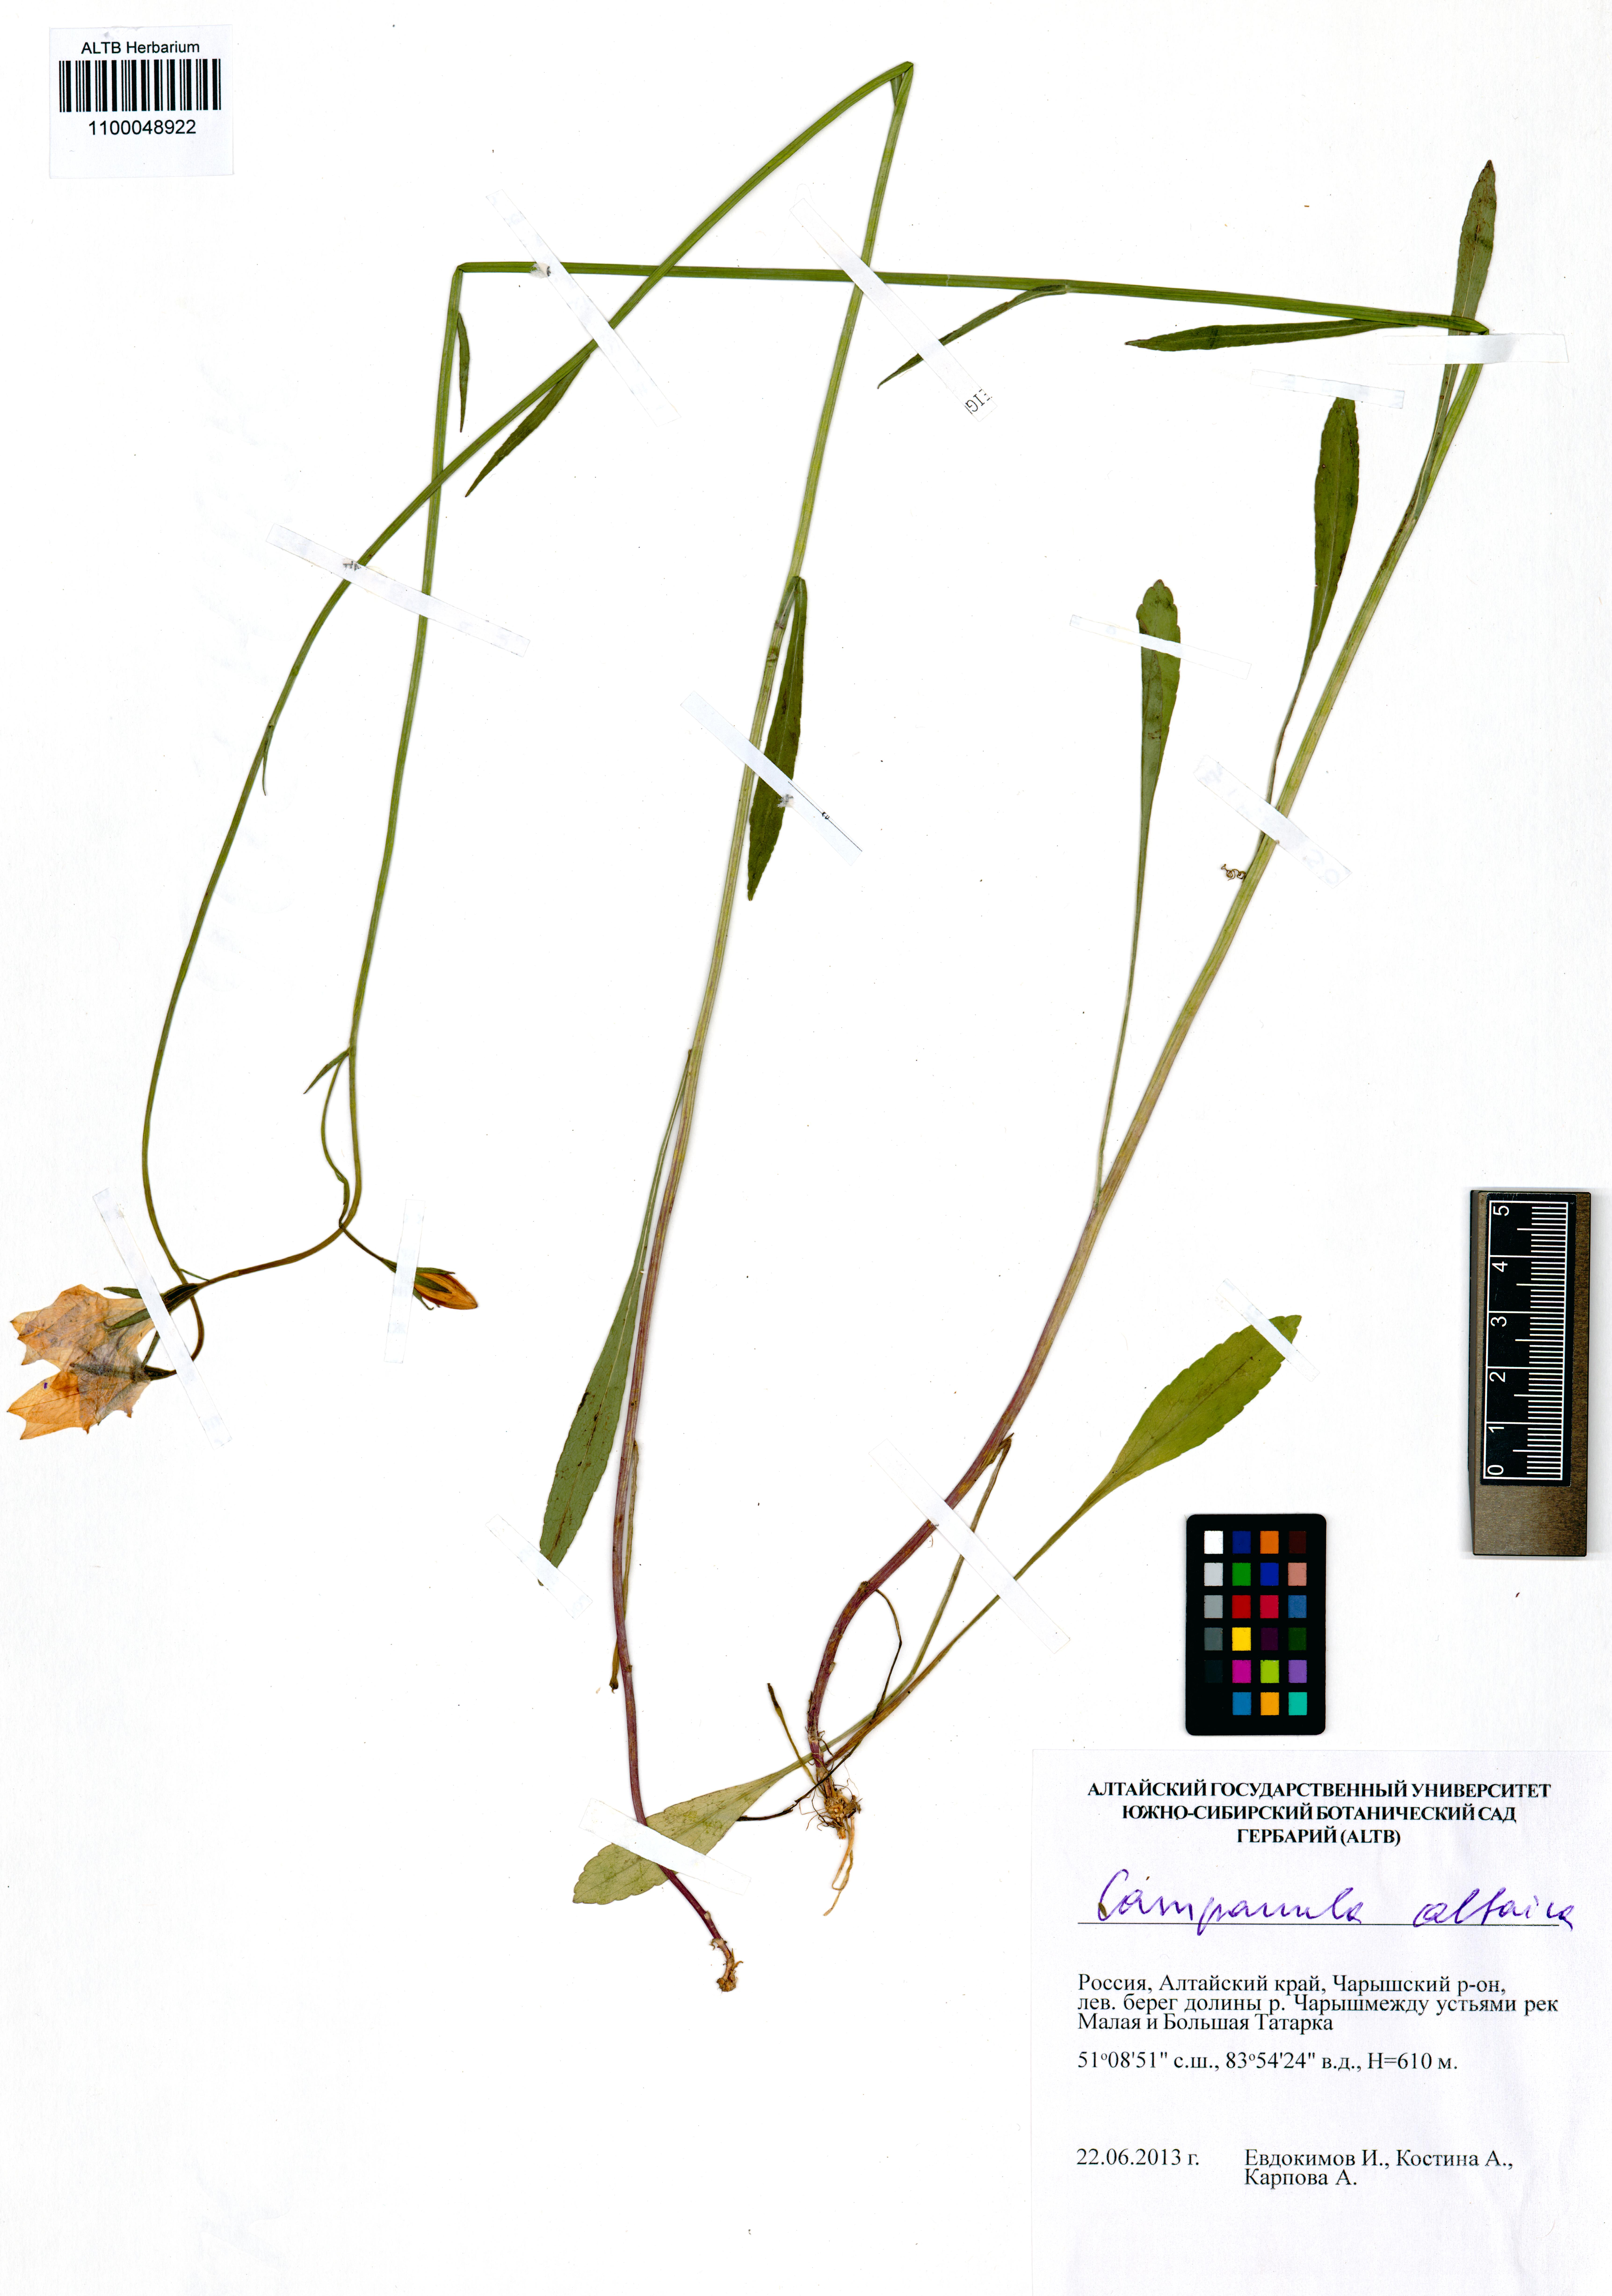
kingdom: Plantae
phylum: Tracheophyta
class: Magnoliopsida
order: Asterales
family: Campanulaceae
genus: Campanula
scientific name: Campanula stevenii
